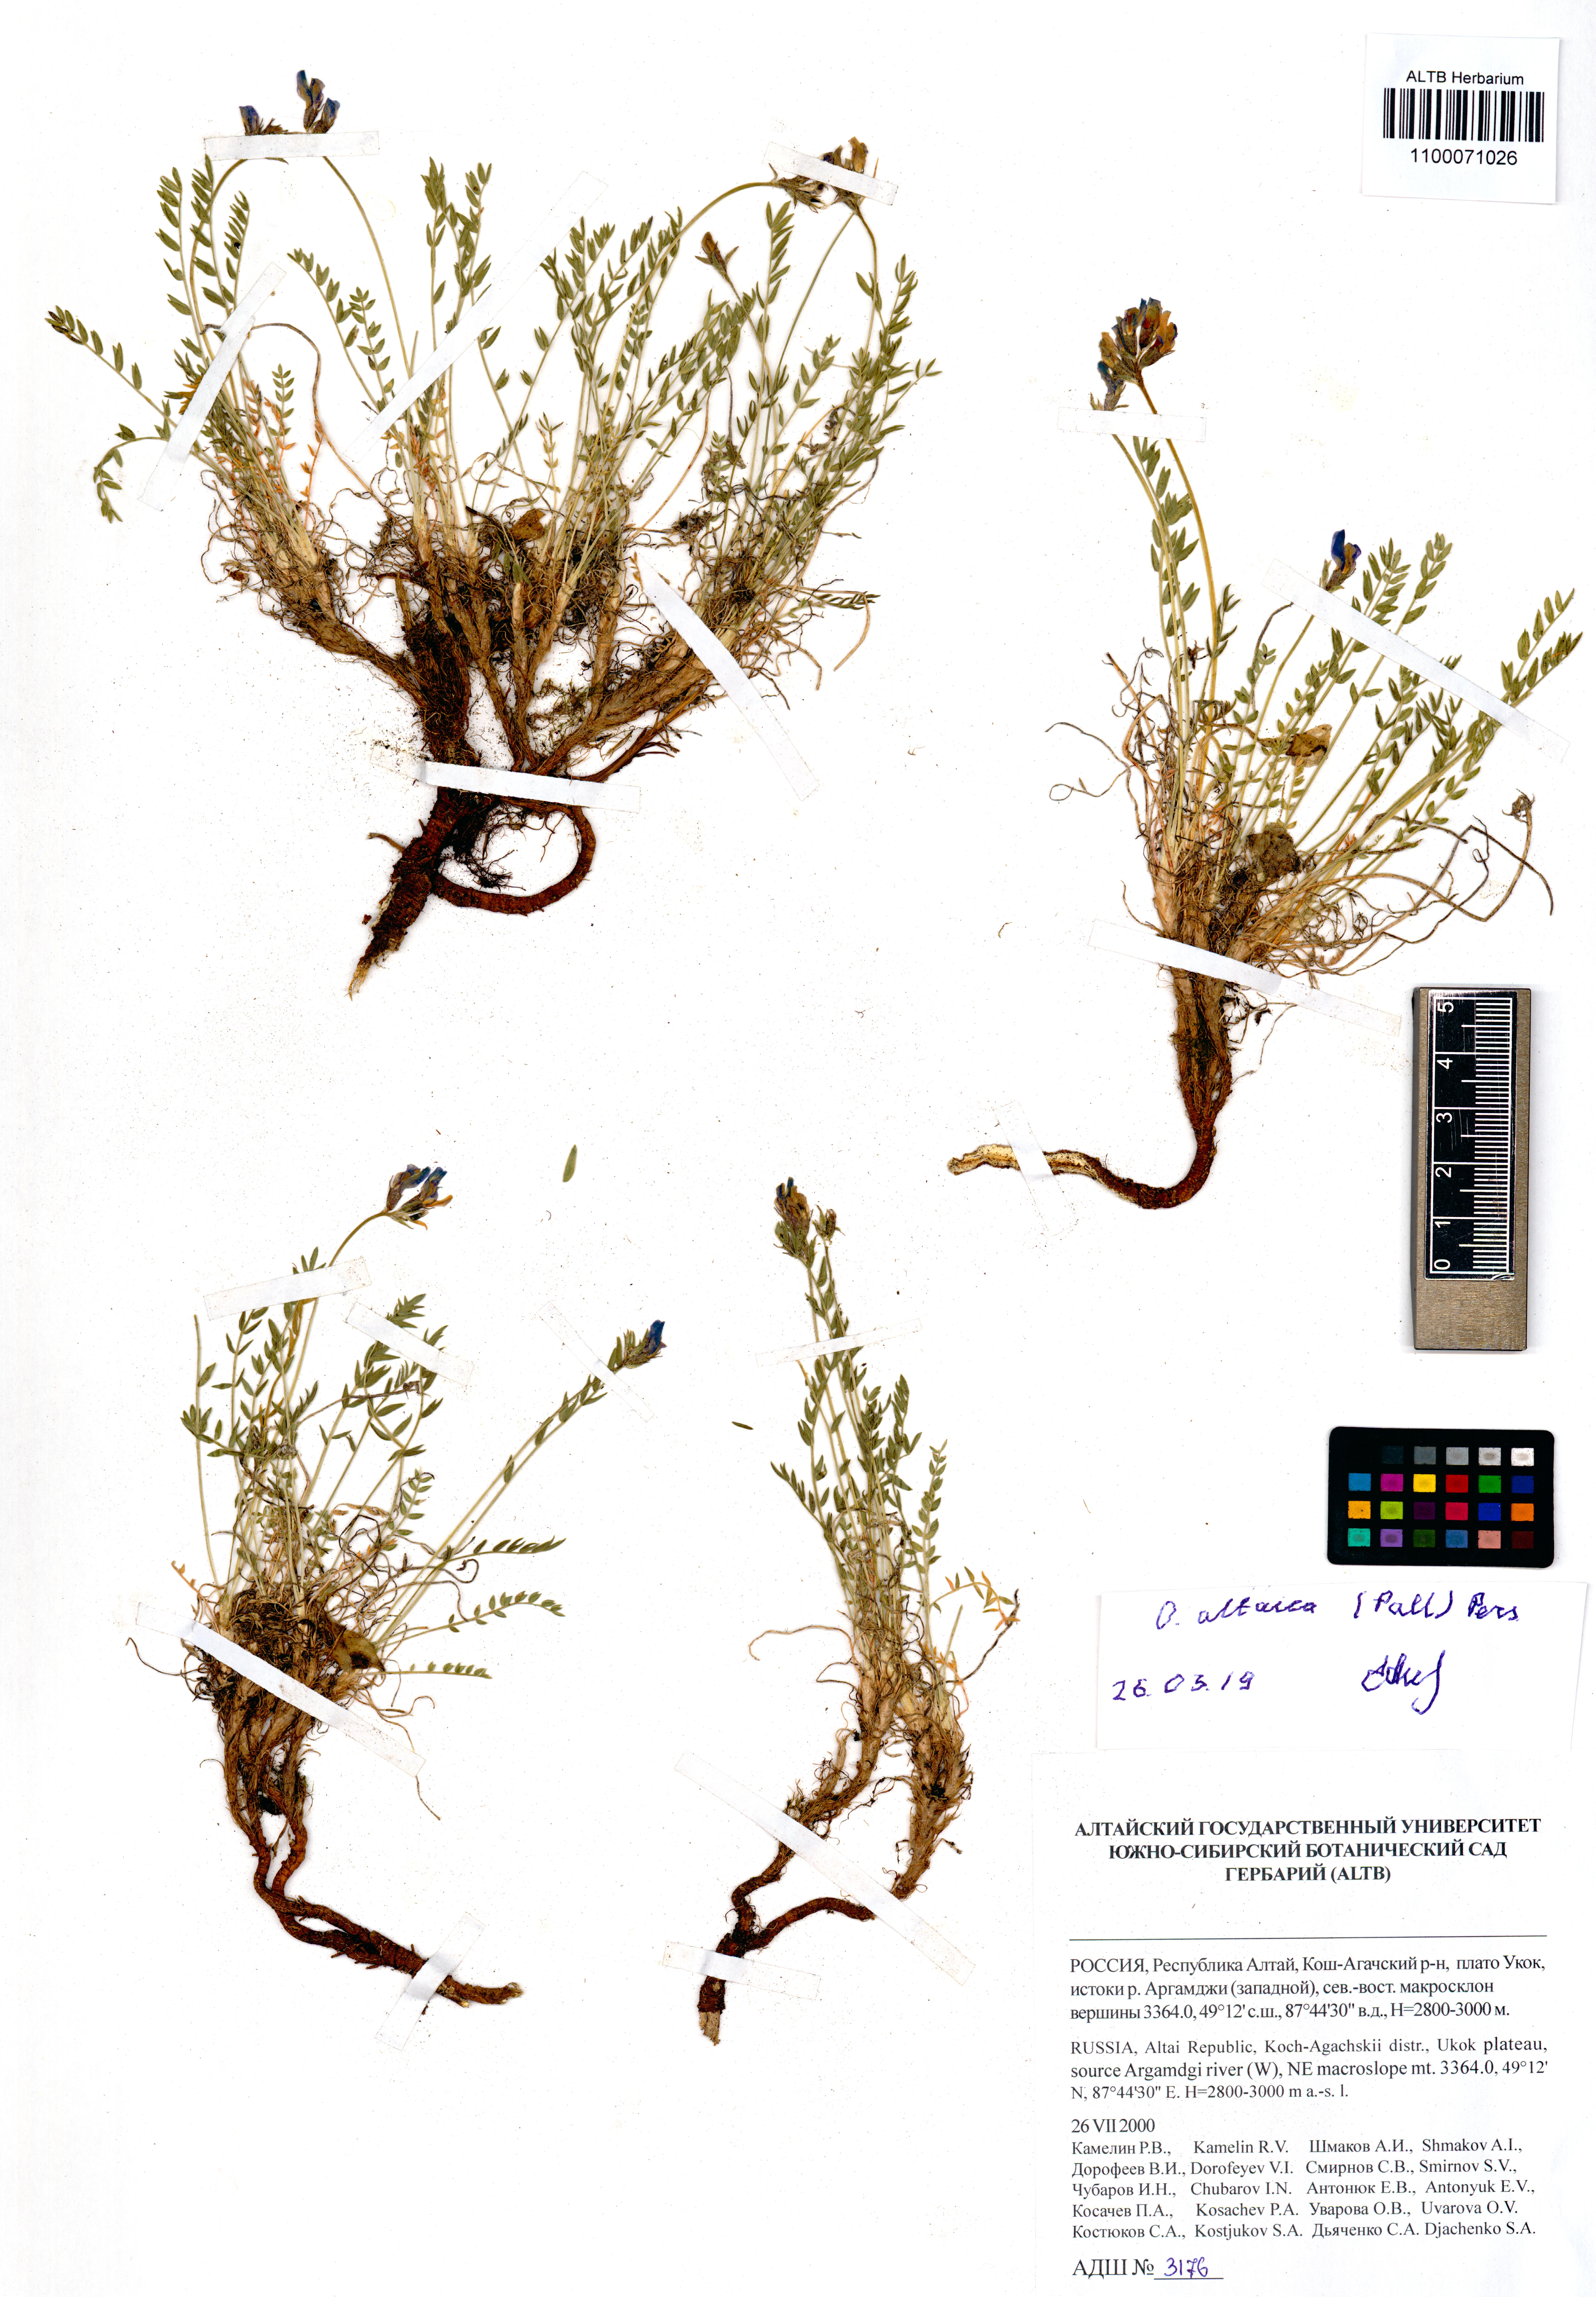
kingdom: Plantae
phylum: Tracheophyta
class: Magnoliopsida
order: Fabales
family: Fabaceae
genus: Oxytropis
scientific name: Oxytropis altaica
